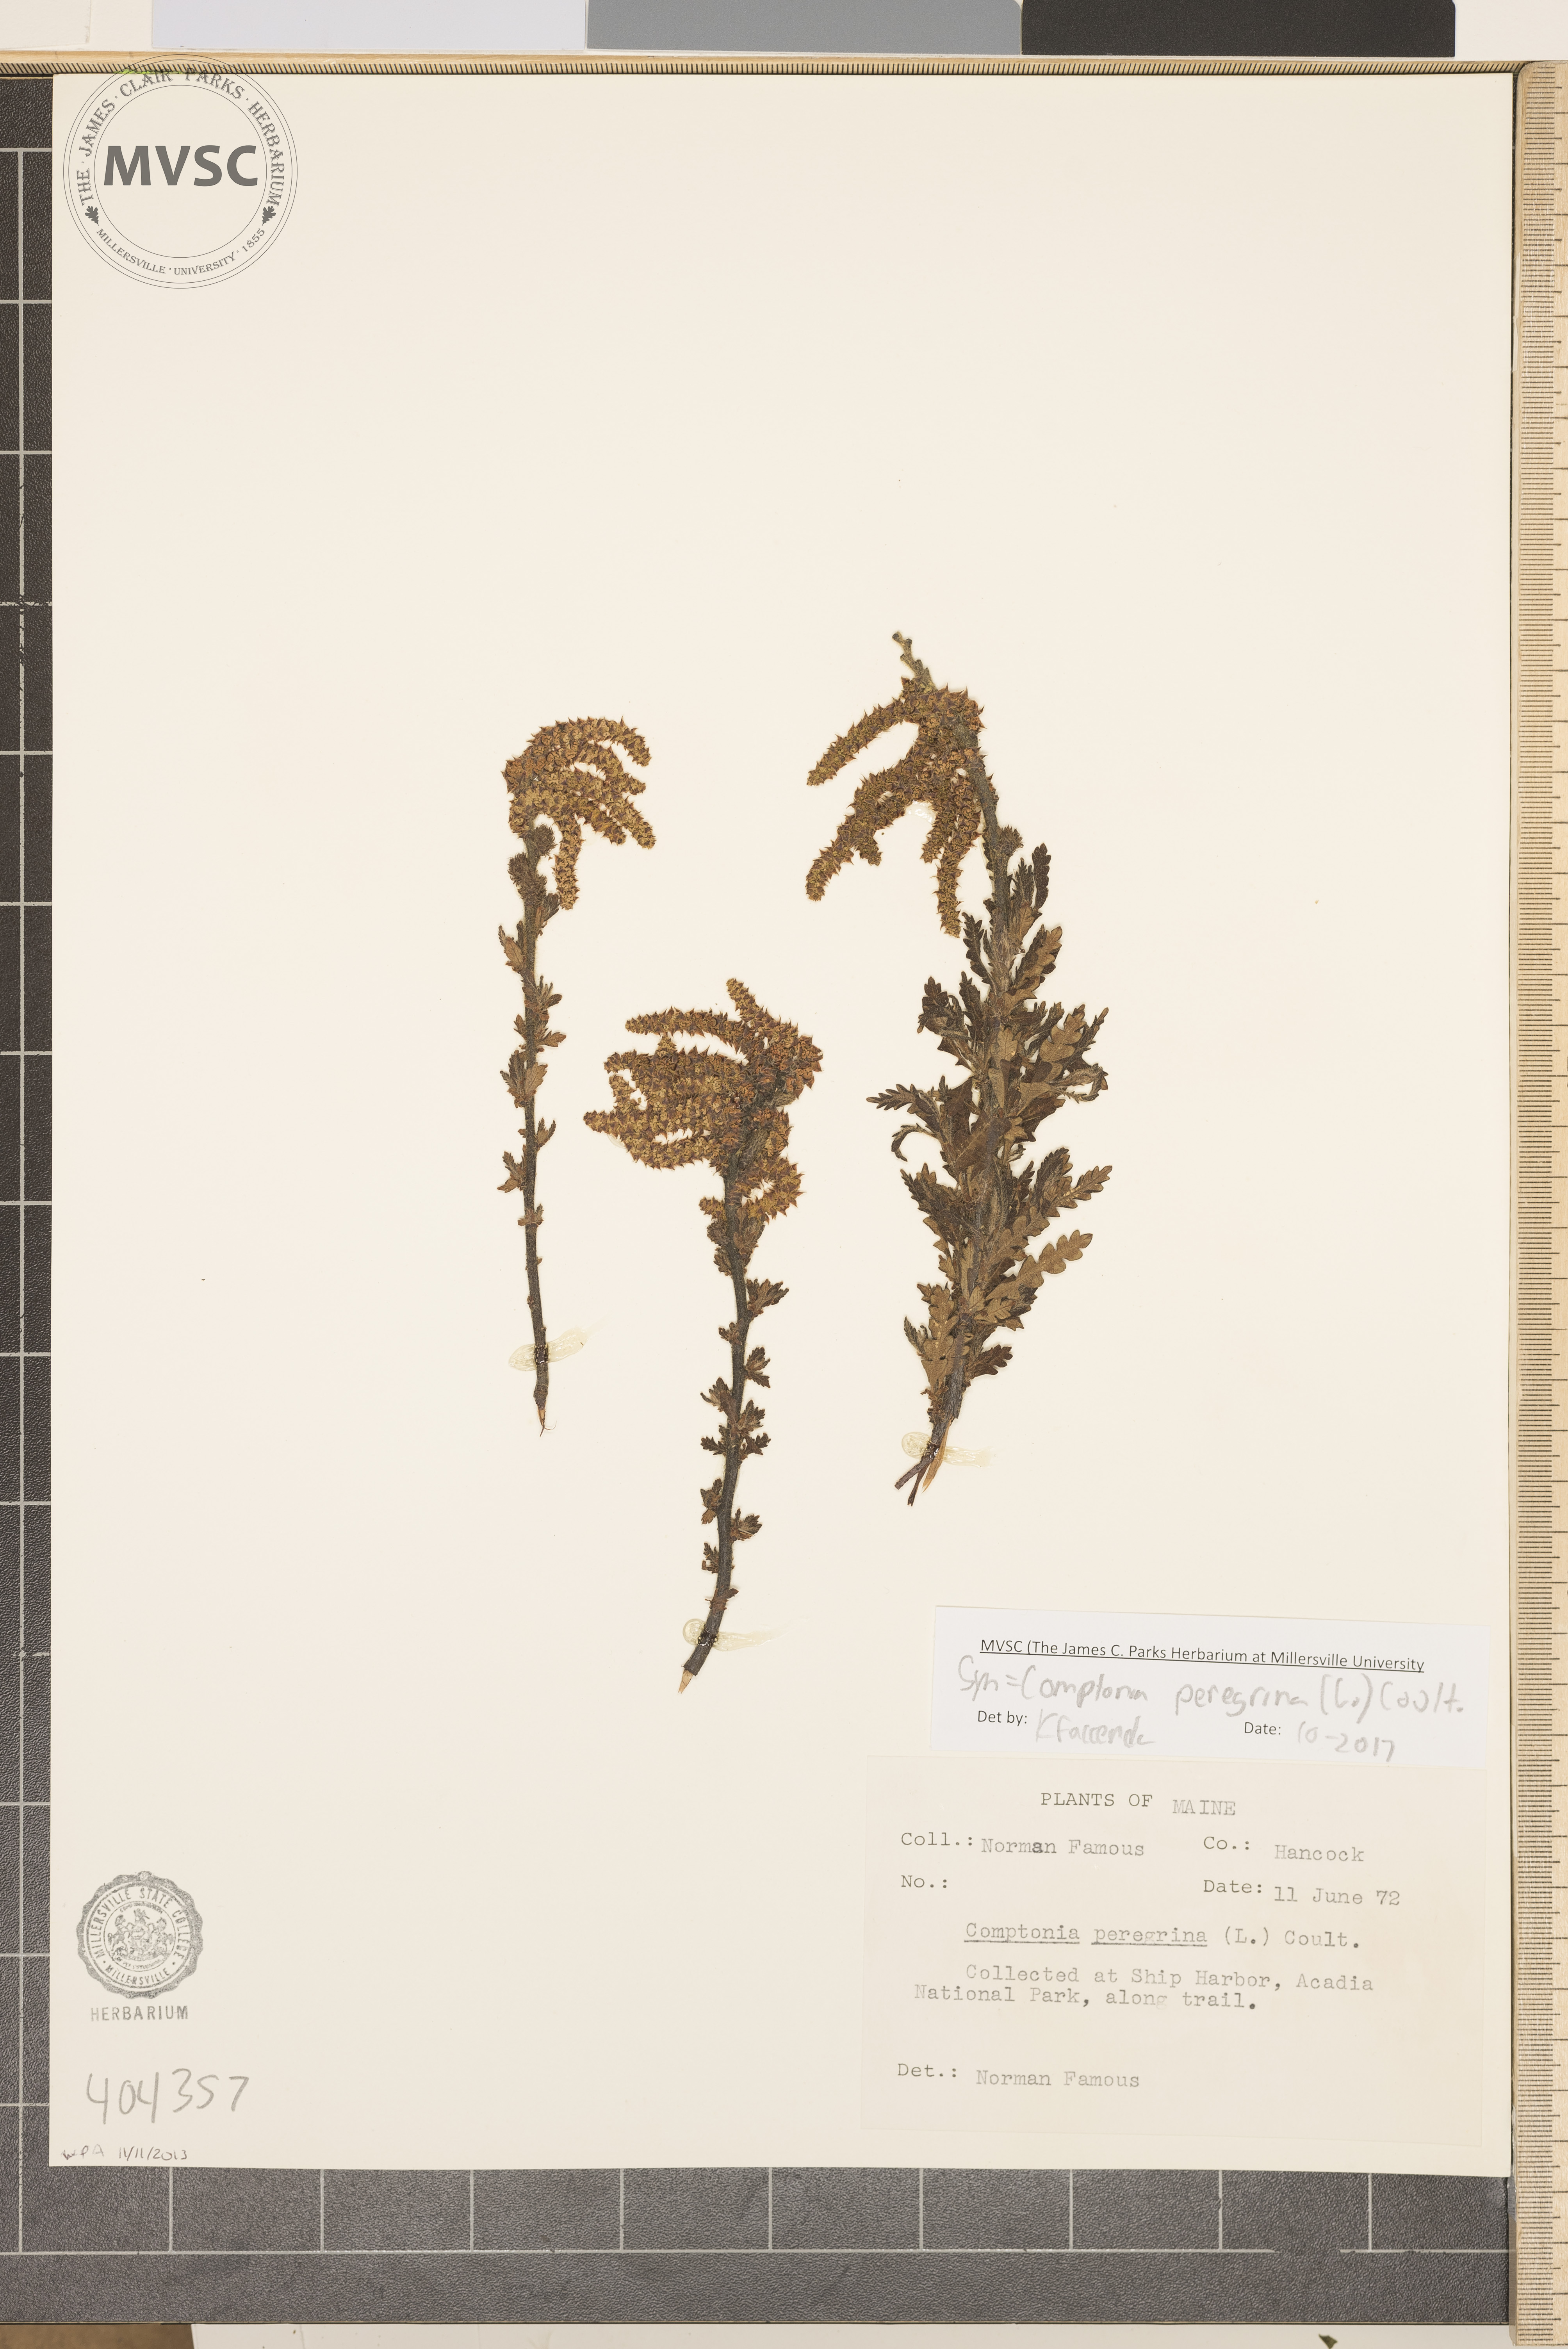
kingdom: Plantae
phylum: Tracheophyta
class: Magnoliopsida
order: Fagales
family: Myricaceae
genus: Comptonia
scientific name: Comptonia peregrina
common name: Sweet-fern
